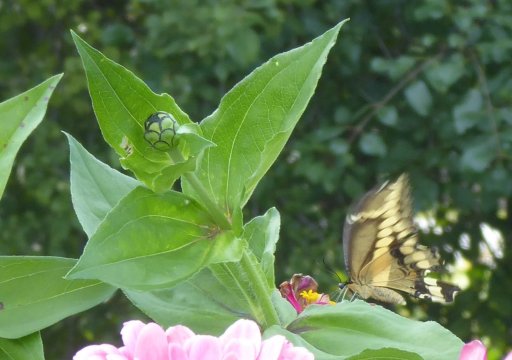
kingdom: Animalia
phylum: Arthropoda
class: Insecta
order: Lepidoptera
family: Papilionidae
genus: Papilio
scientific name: Papilio cresphontes
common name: Eastern Giant Swallowtail
